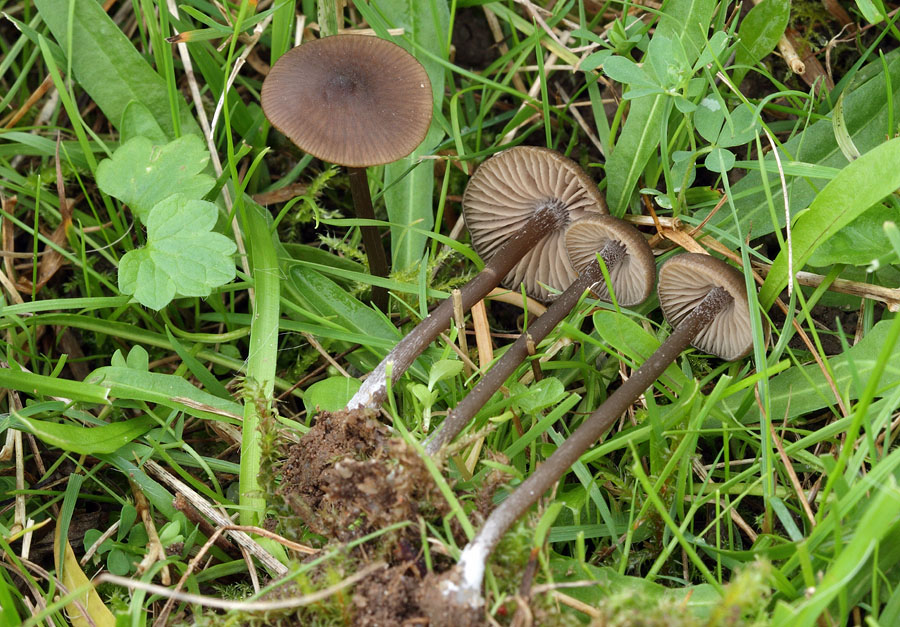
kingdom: Fungi
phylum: Basidiomycota
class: Agaricomycetes
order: Agaricales
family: Entolomataceae
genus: Entoloma
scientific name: Entoloma clandestinum
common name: tykbladet rødblad
